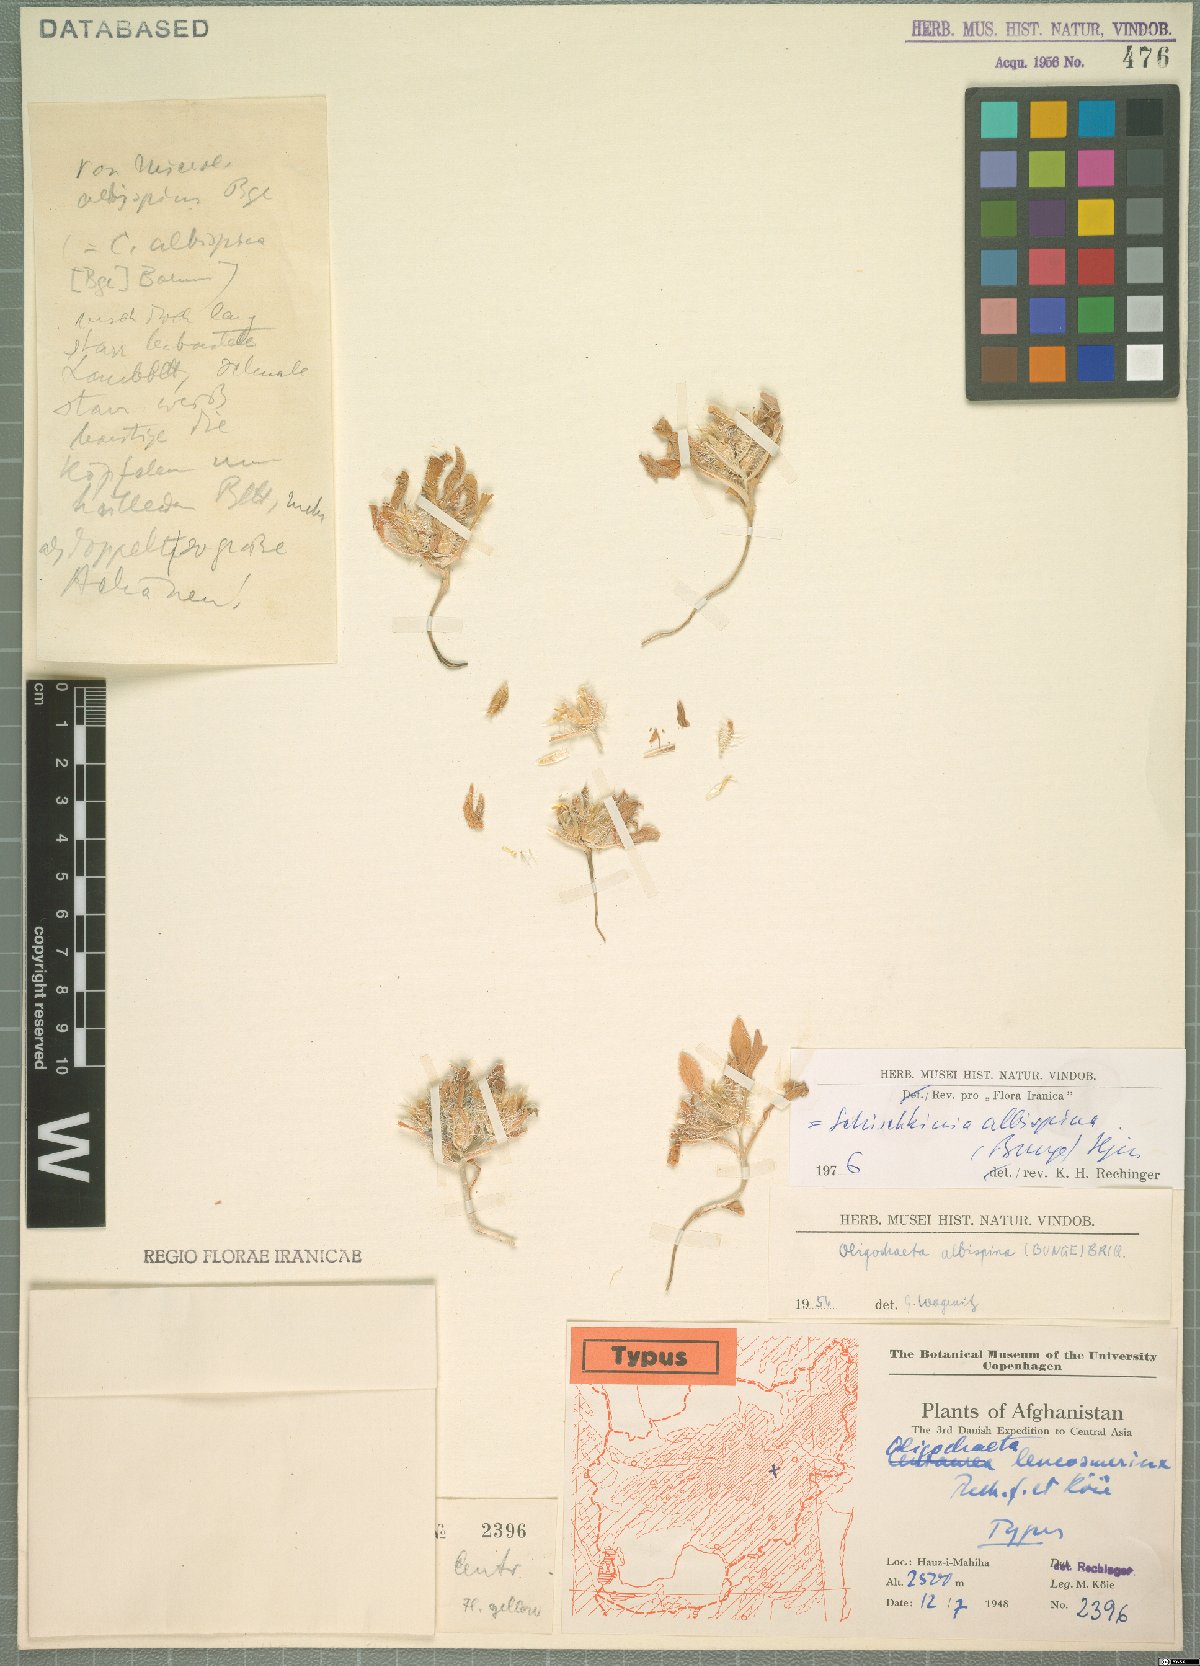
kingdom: Plantae
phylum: Tracheophyta
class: Magnoliopsida
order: Asterales
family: Asteraceae
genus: Schischkinia
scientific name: Schischkinia albispina
